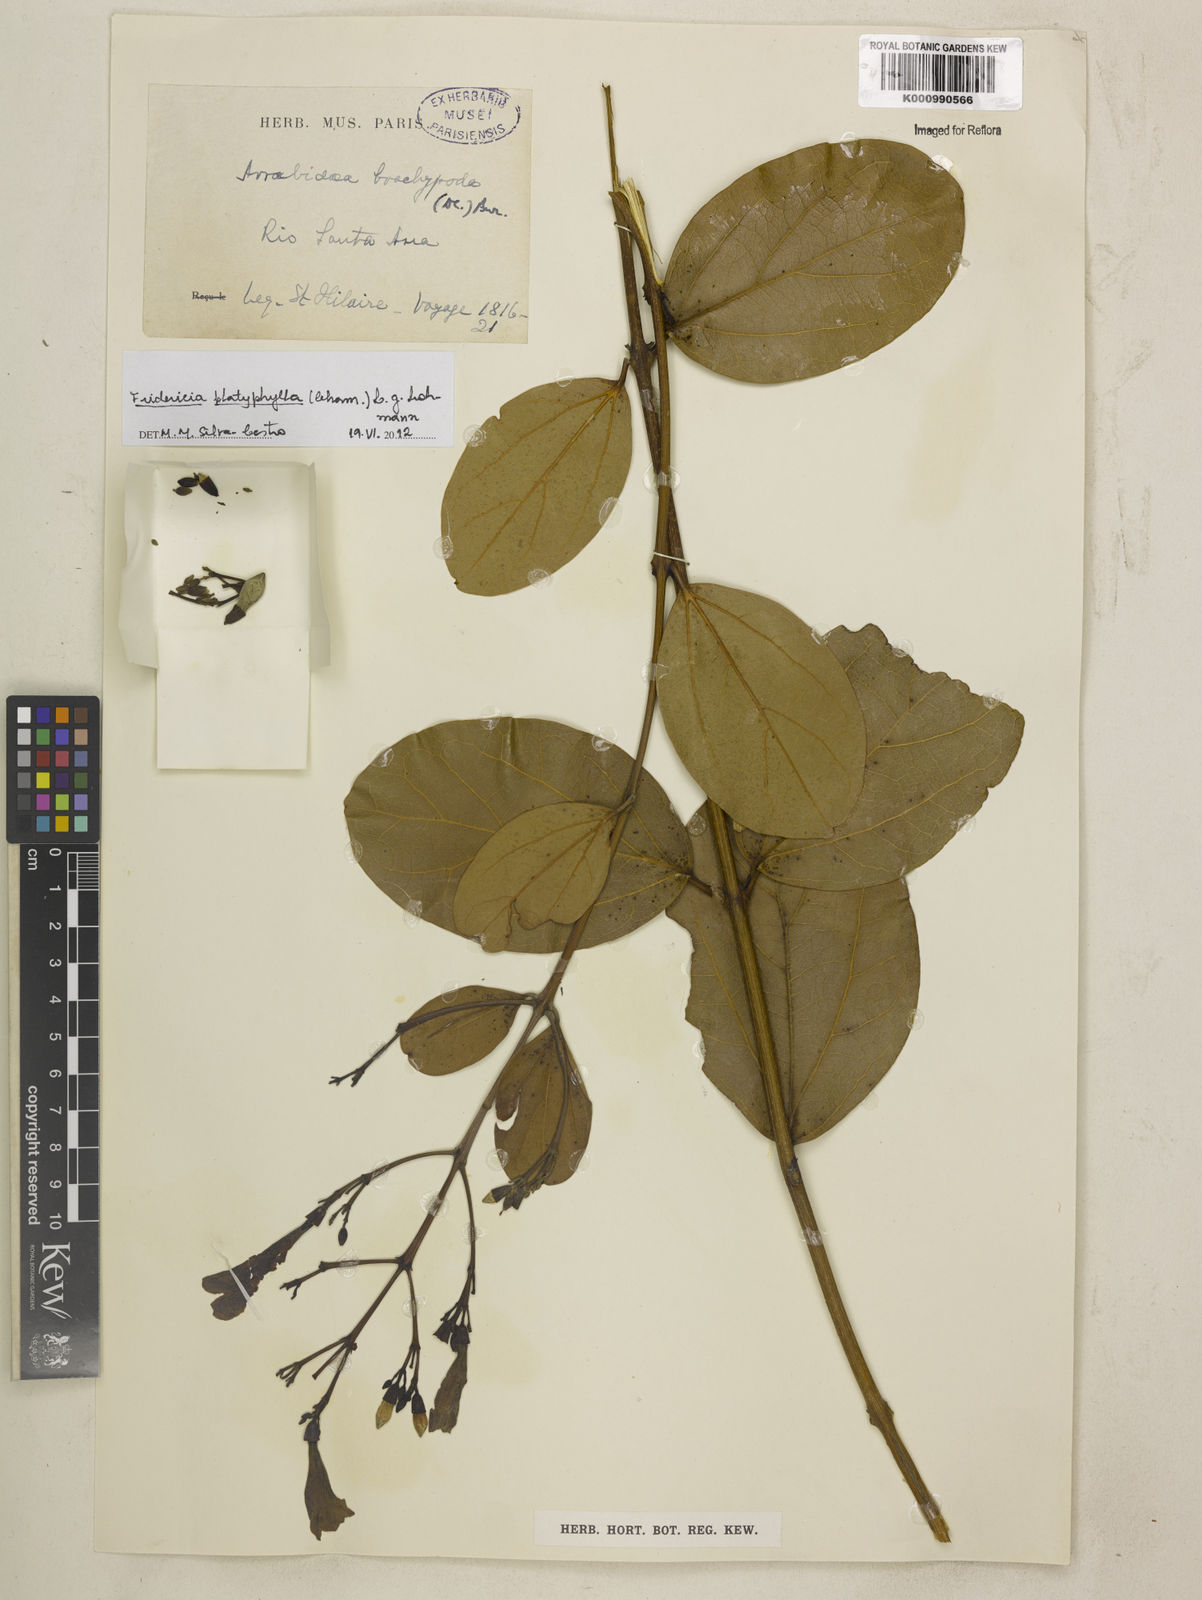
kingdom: Plantae
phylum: Tracheophyta
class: Magnoliopsida
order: Lamiales
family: Bignoniaceae
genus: Fridericia
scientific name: Fridericia platyphylla
